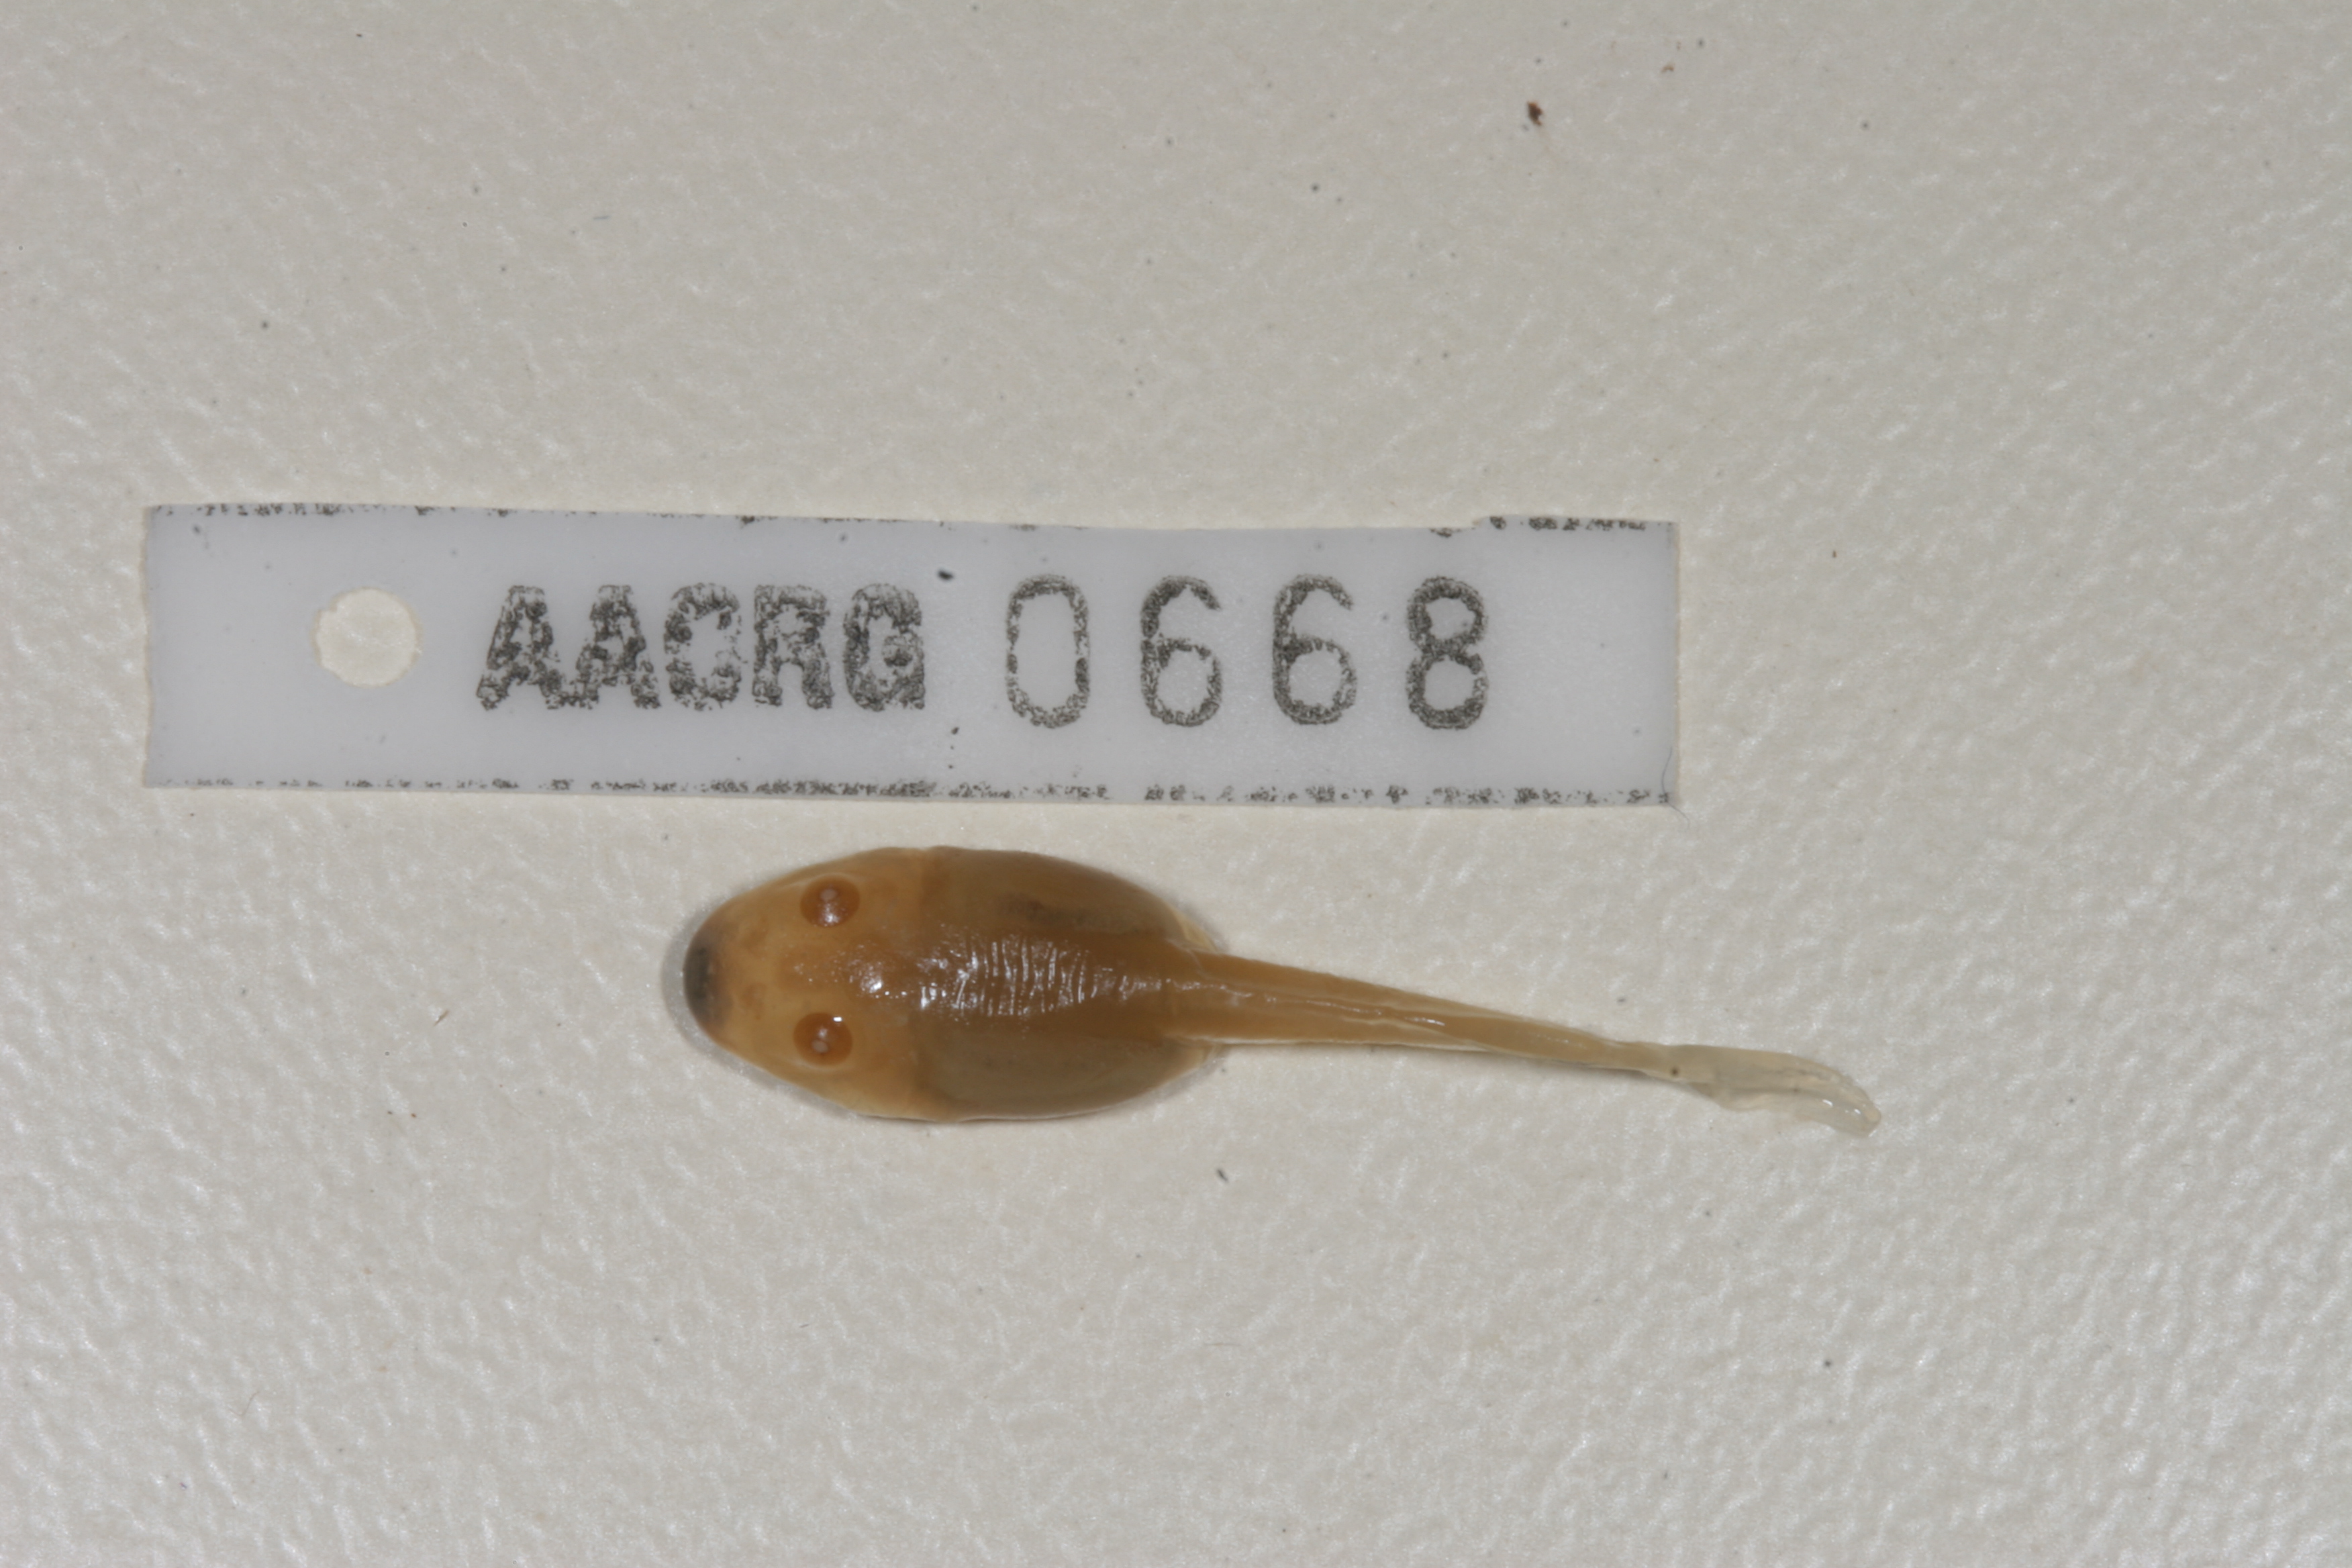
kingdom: Animalia
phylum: Chordata
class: Amphibia
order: Anura
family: Pyxicephalidae
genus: Strongylopus
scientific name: Strongylopus grayii
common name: Gray's stream frog
